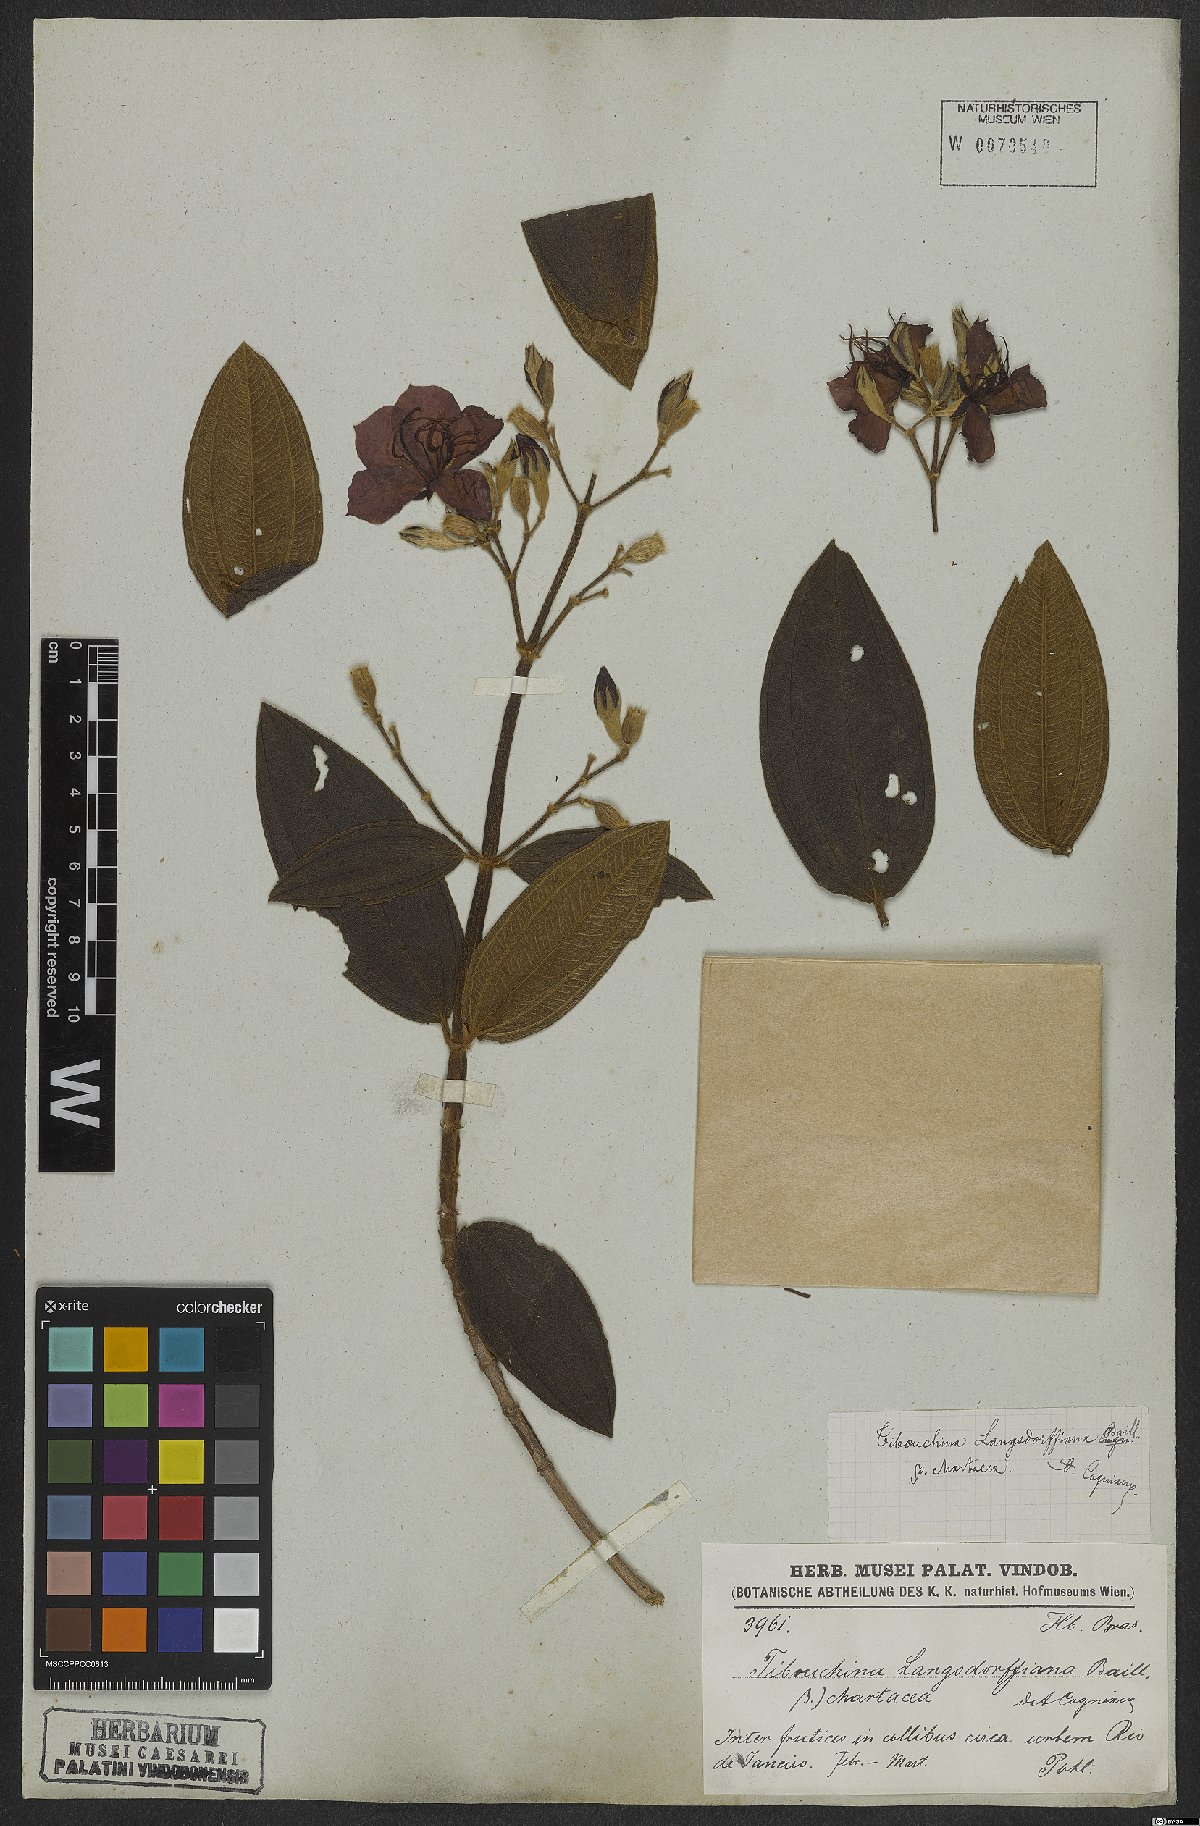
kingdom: Plantae
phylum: Tracheophyta
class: Magnoliopsida
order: Myrtales
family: Melastomataceae
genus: Pleroma
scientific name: Pleroma langsdorfianum
